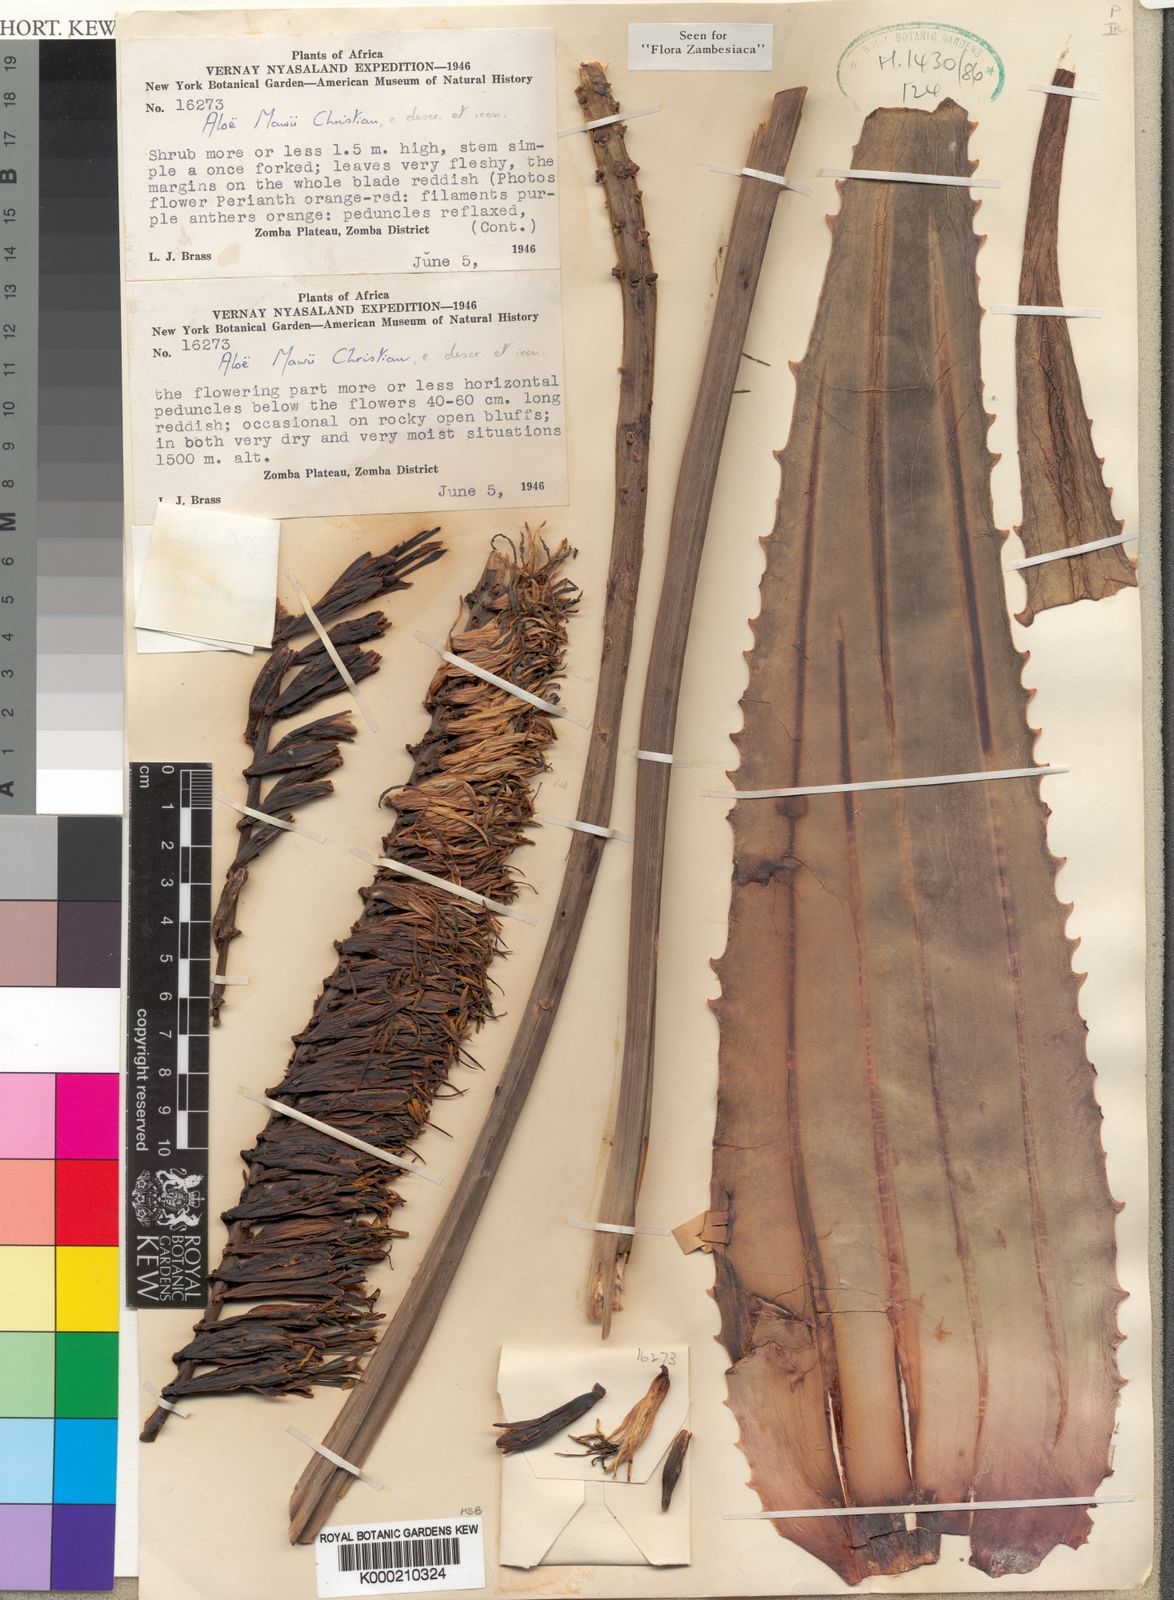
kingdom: Plantae
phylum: Tracheophyta
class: Liliopsida
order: Asparagales
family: Asphodelaceae
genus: Aloe
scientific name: Aloe mawii
